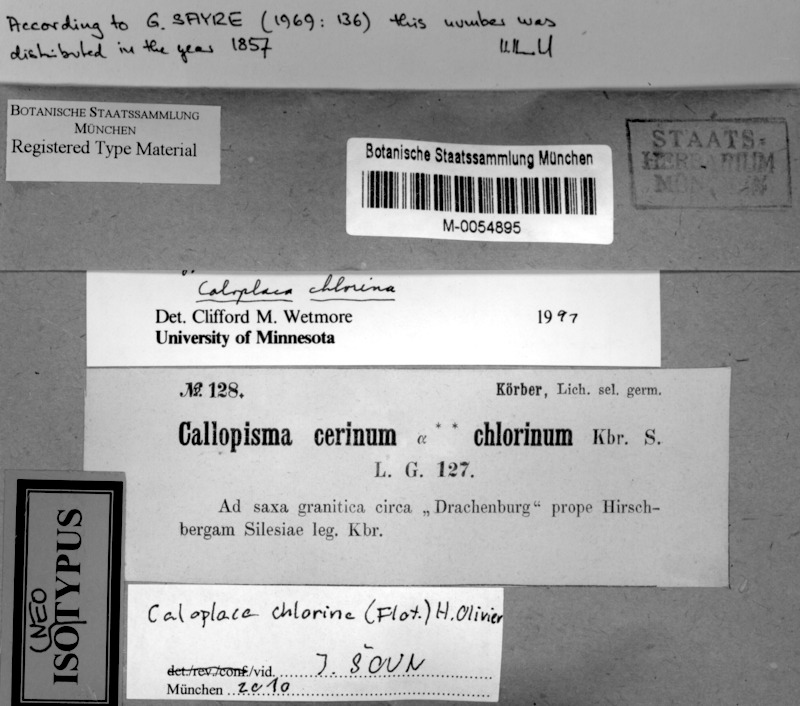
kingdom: Fungi
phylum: Ascomycota
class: Lecanoromycetes
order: Teloschistales
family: Teloschistaceae
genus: Caloplaca
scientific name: Caloplaca chlorina
